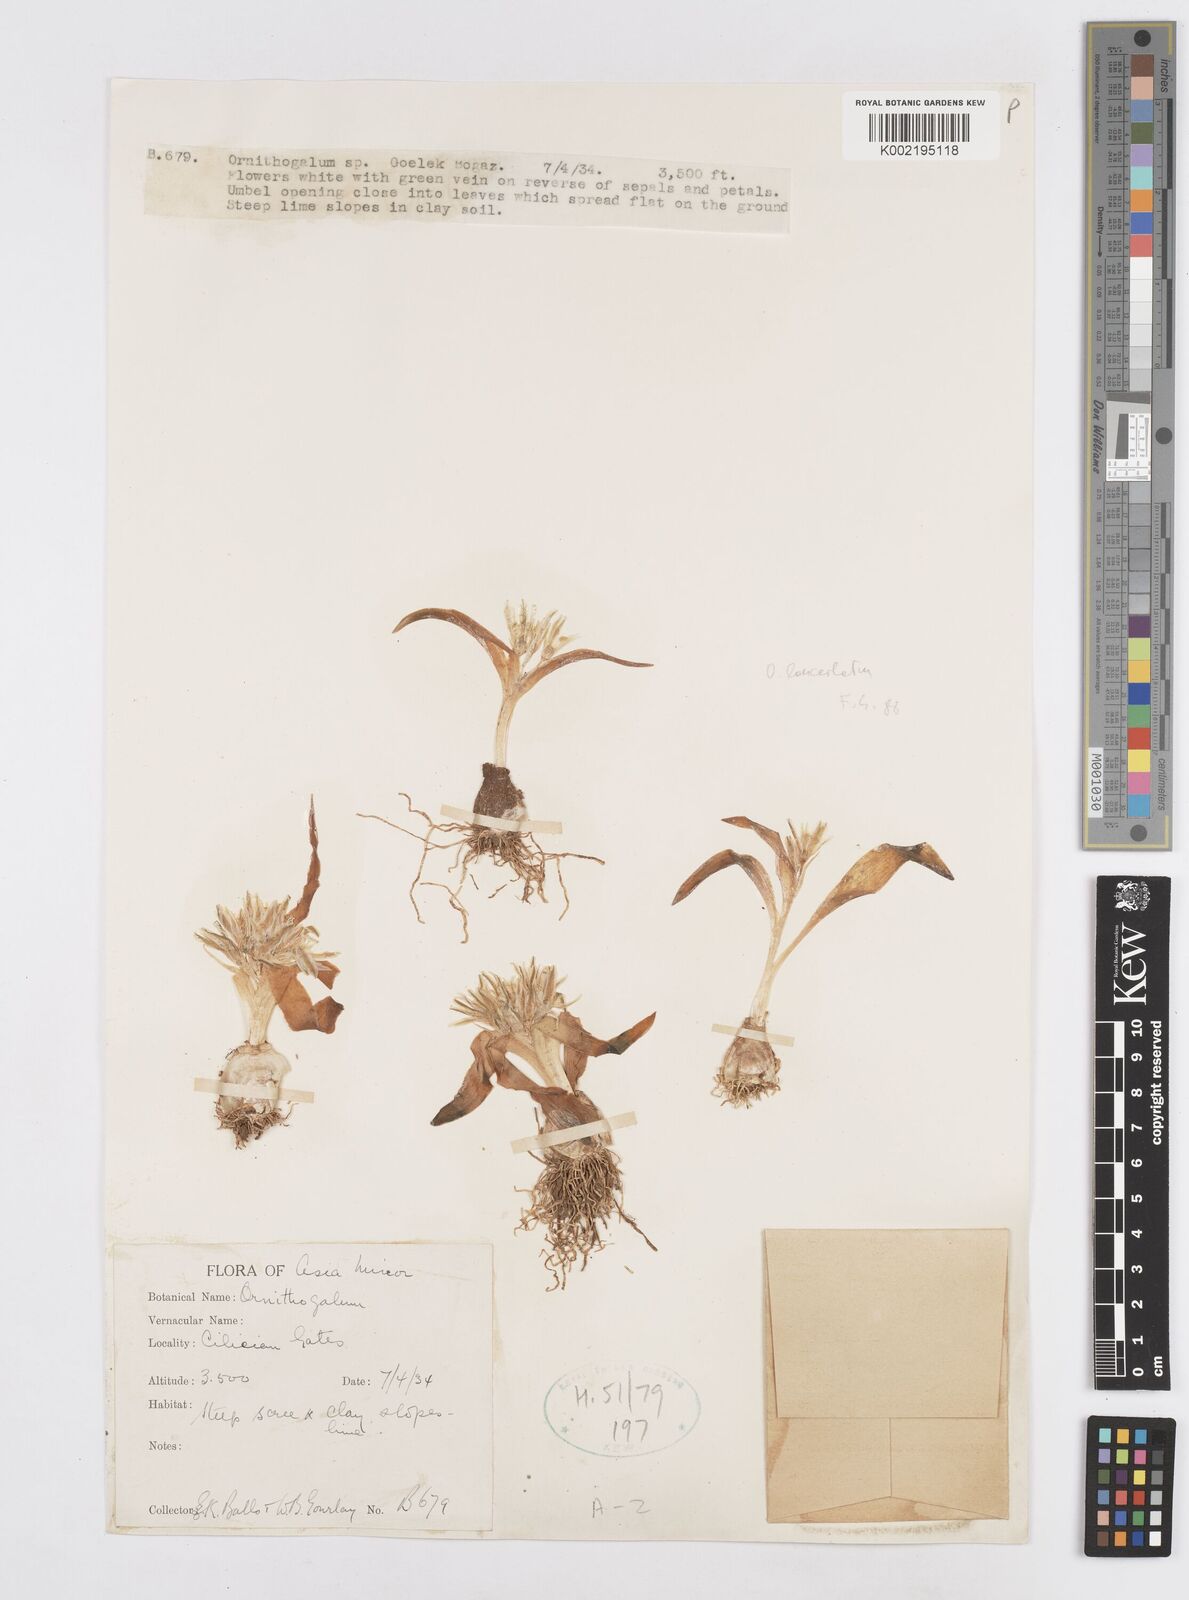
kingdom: Plantae
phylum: Tracheophyta
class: Liliopsida
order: Asparagales
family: Asparagaceae
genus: Ornithogalum
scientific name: Ornithogalum lanceolatum
